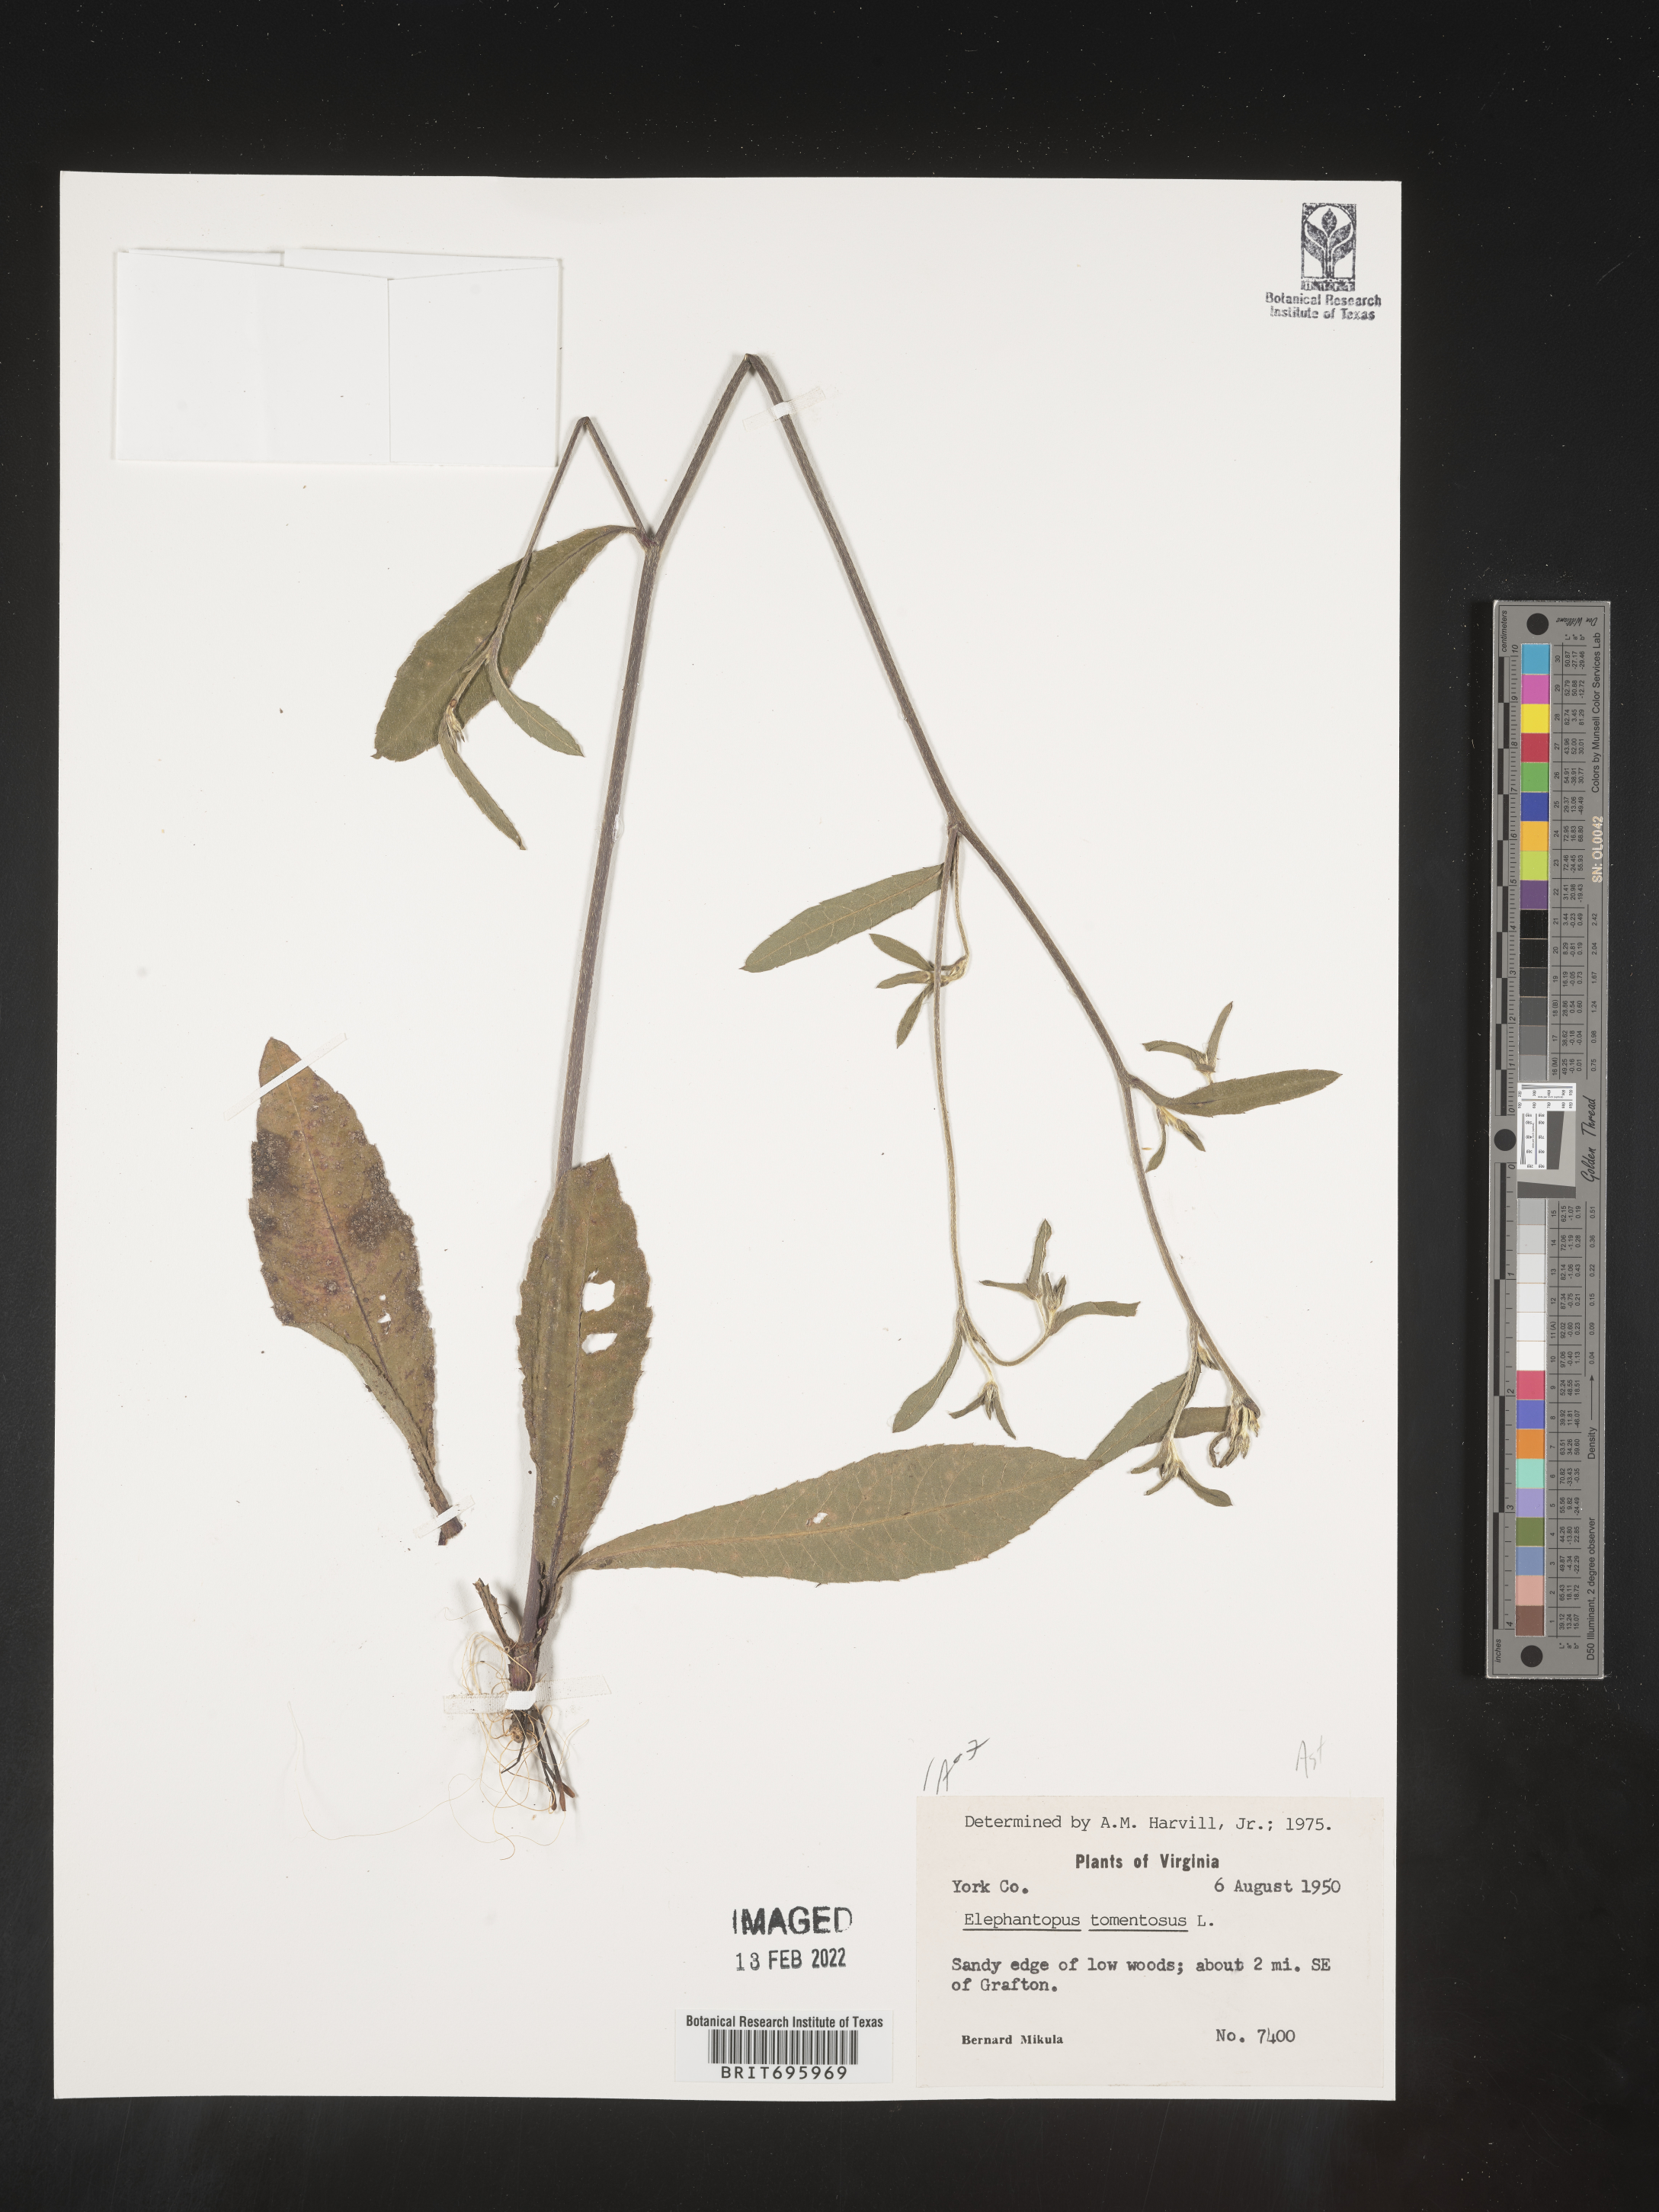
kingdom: Plantae
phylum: Tracheophyta
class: Magnoliopsida
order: Asterales
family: Asteraceae
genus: Elephantopus
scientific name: Elephantopus tomentosus
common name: Tobacco-weed
